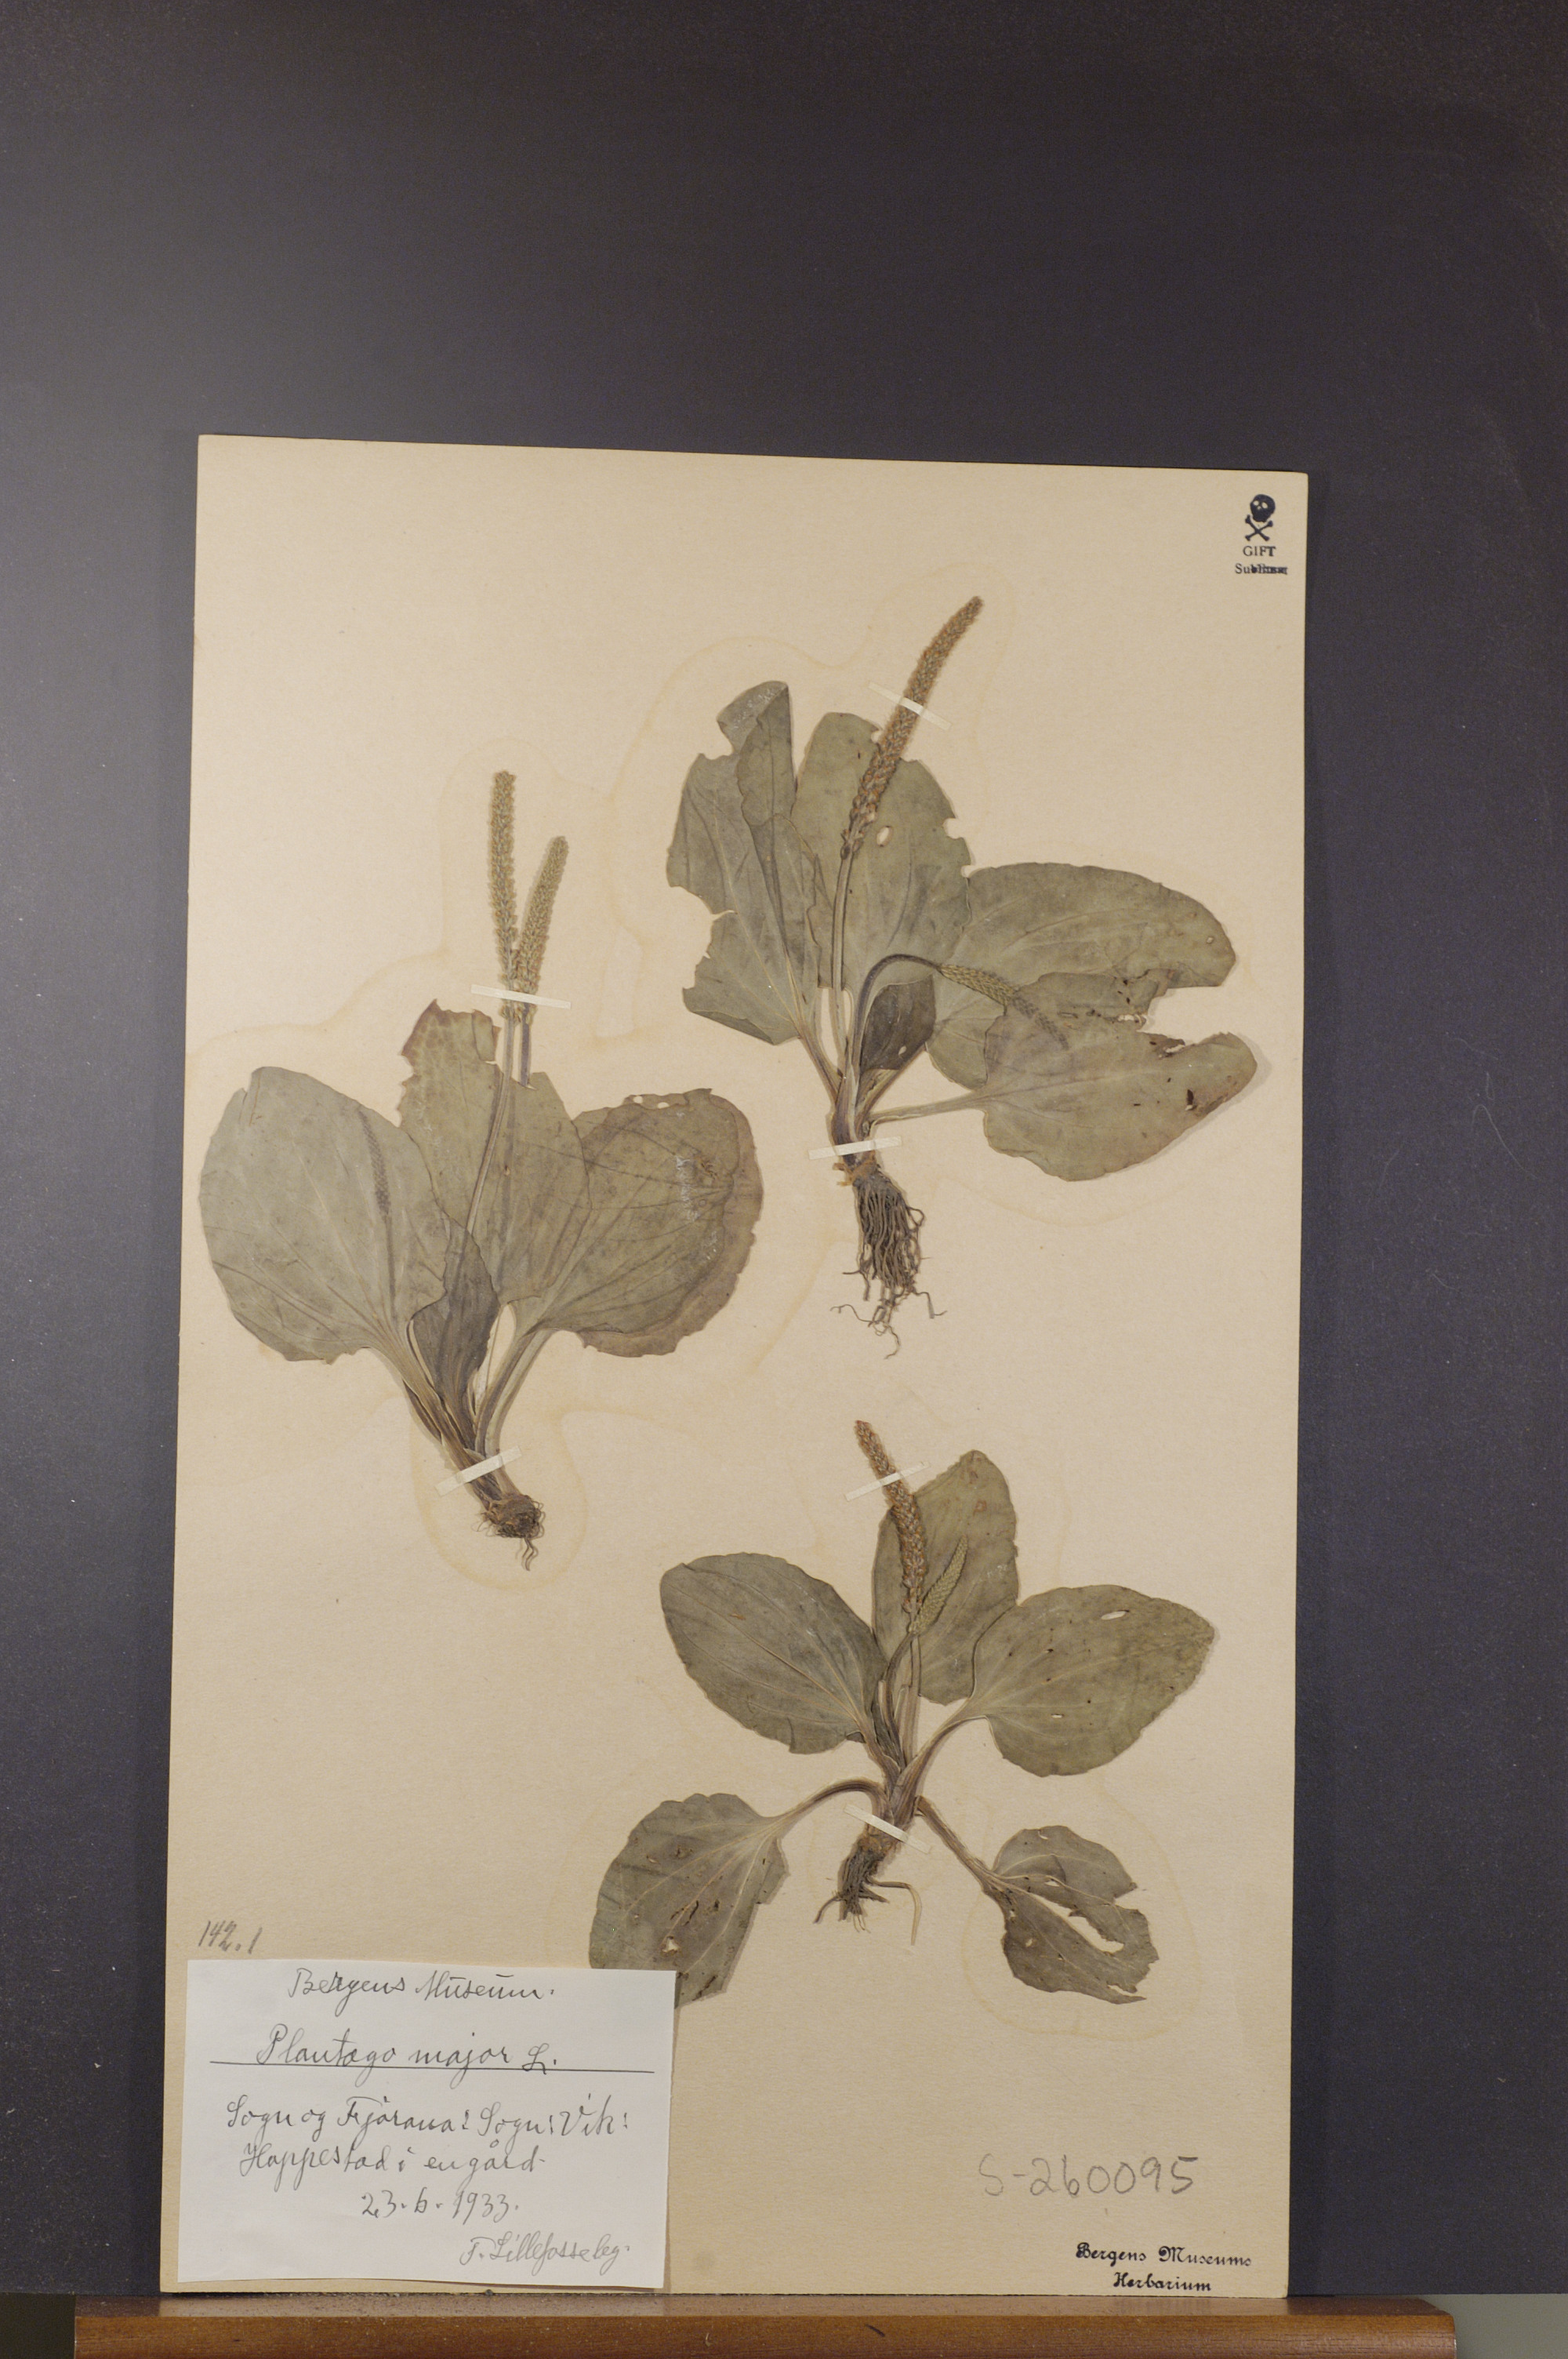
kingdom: Plantae
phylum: Tracheophyta
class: Magnoliopsida
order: Lamiales
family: Plantaginaceae
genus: Plantago
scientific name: Plantago major
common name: Common plantain
